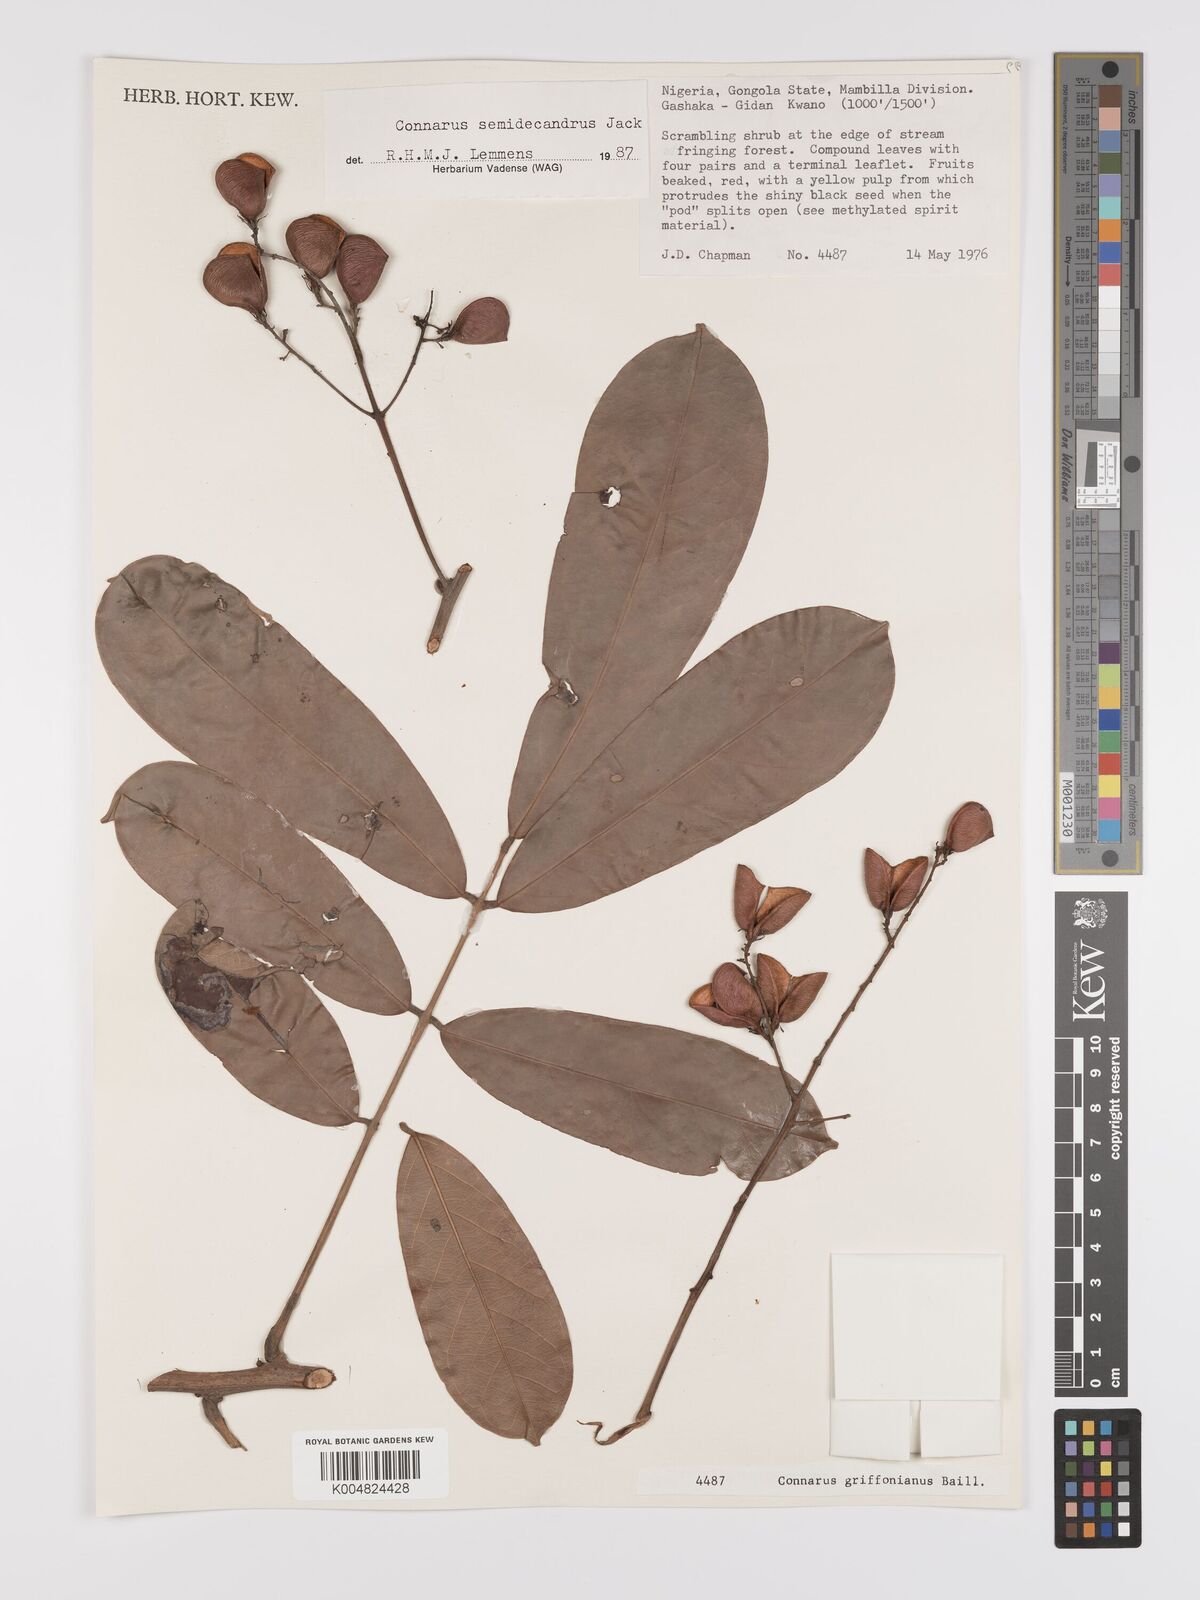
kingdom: Plantae
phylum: Tracheophyta
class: Magnoliopsida
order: Oxalidales
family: Connaraceae
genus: Connarus
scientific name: Connarus griffonianus
